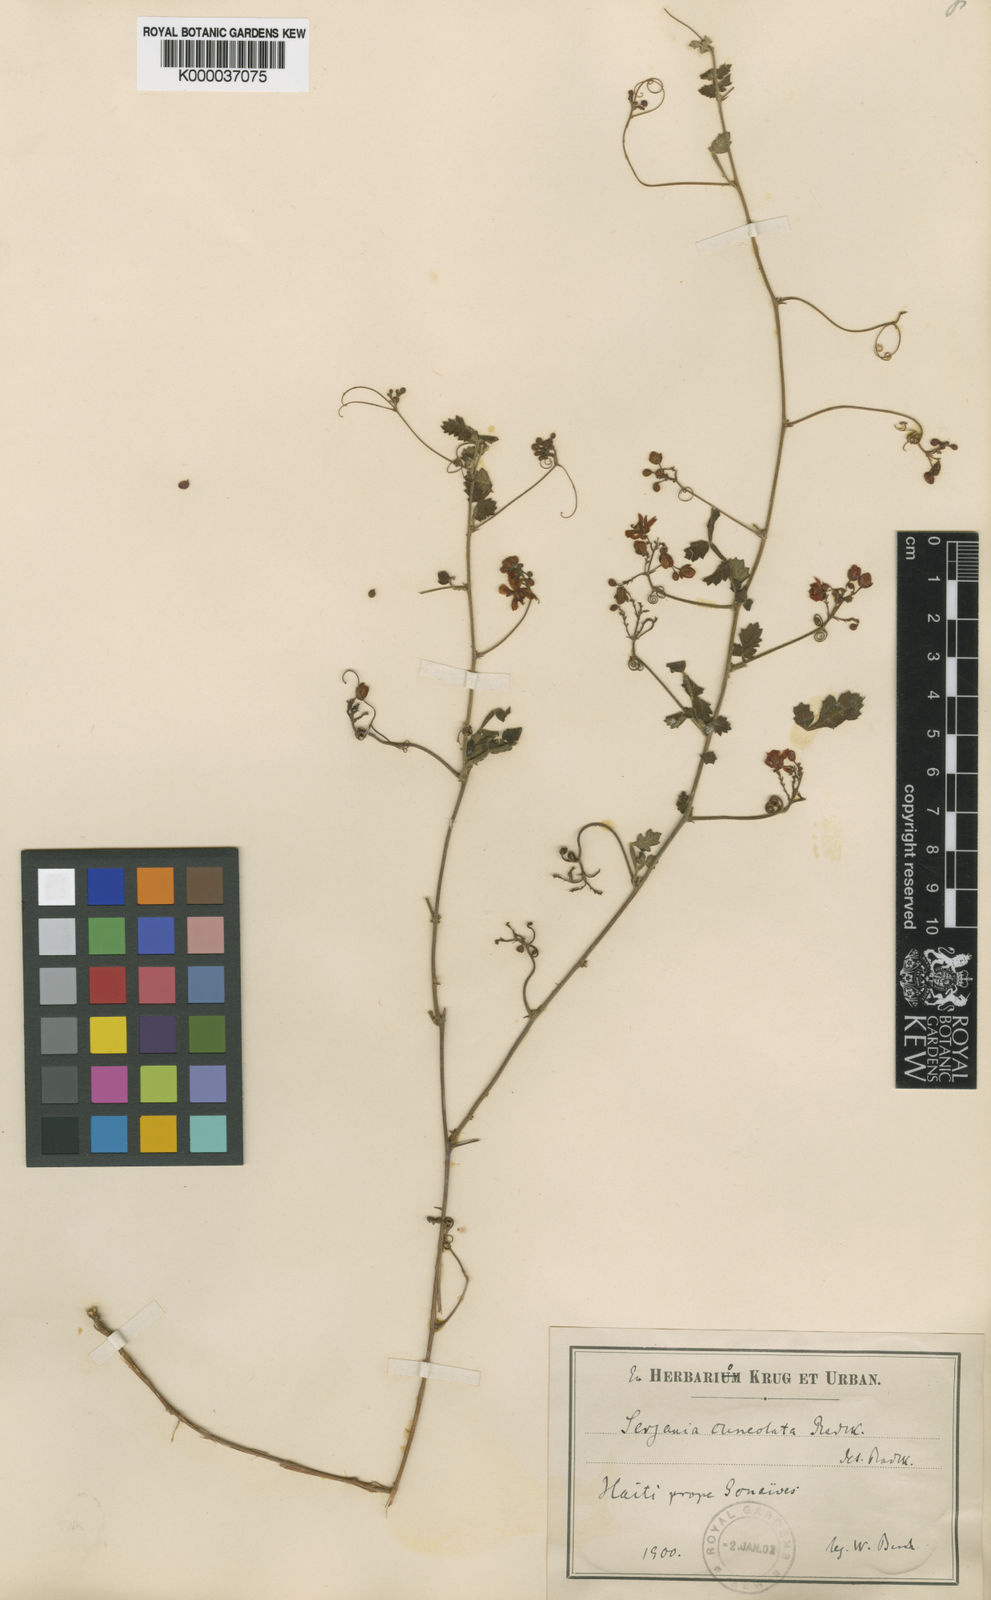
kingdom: Plantae
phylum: Tracheophyta
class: Magnoliopsida
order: Sapindales
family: Sapindaceae
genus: Serjania
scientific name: Serjania cuneolata
